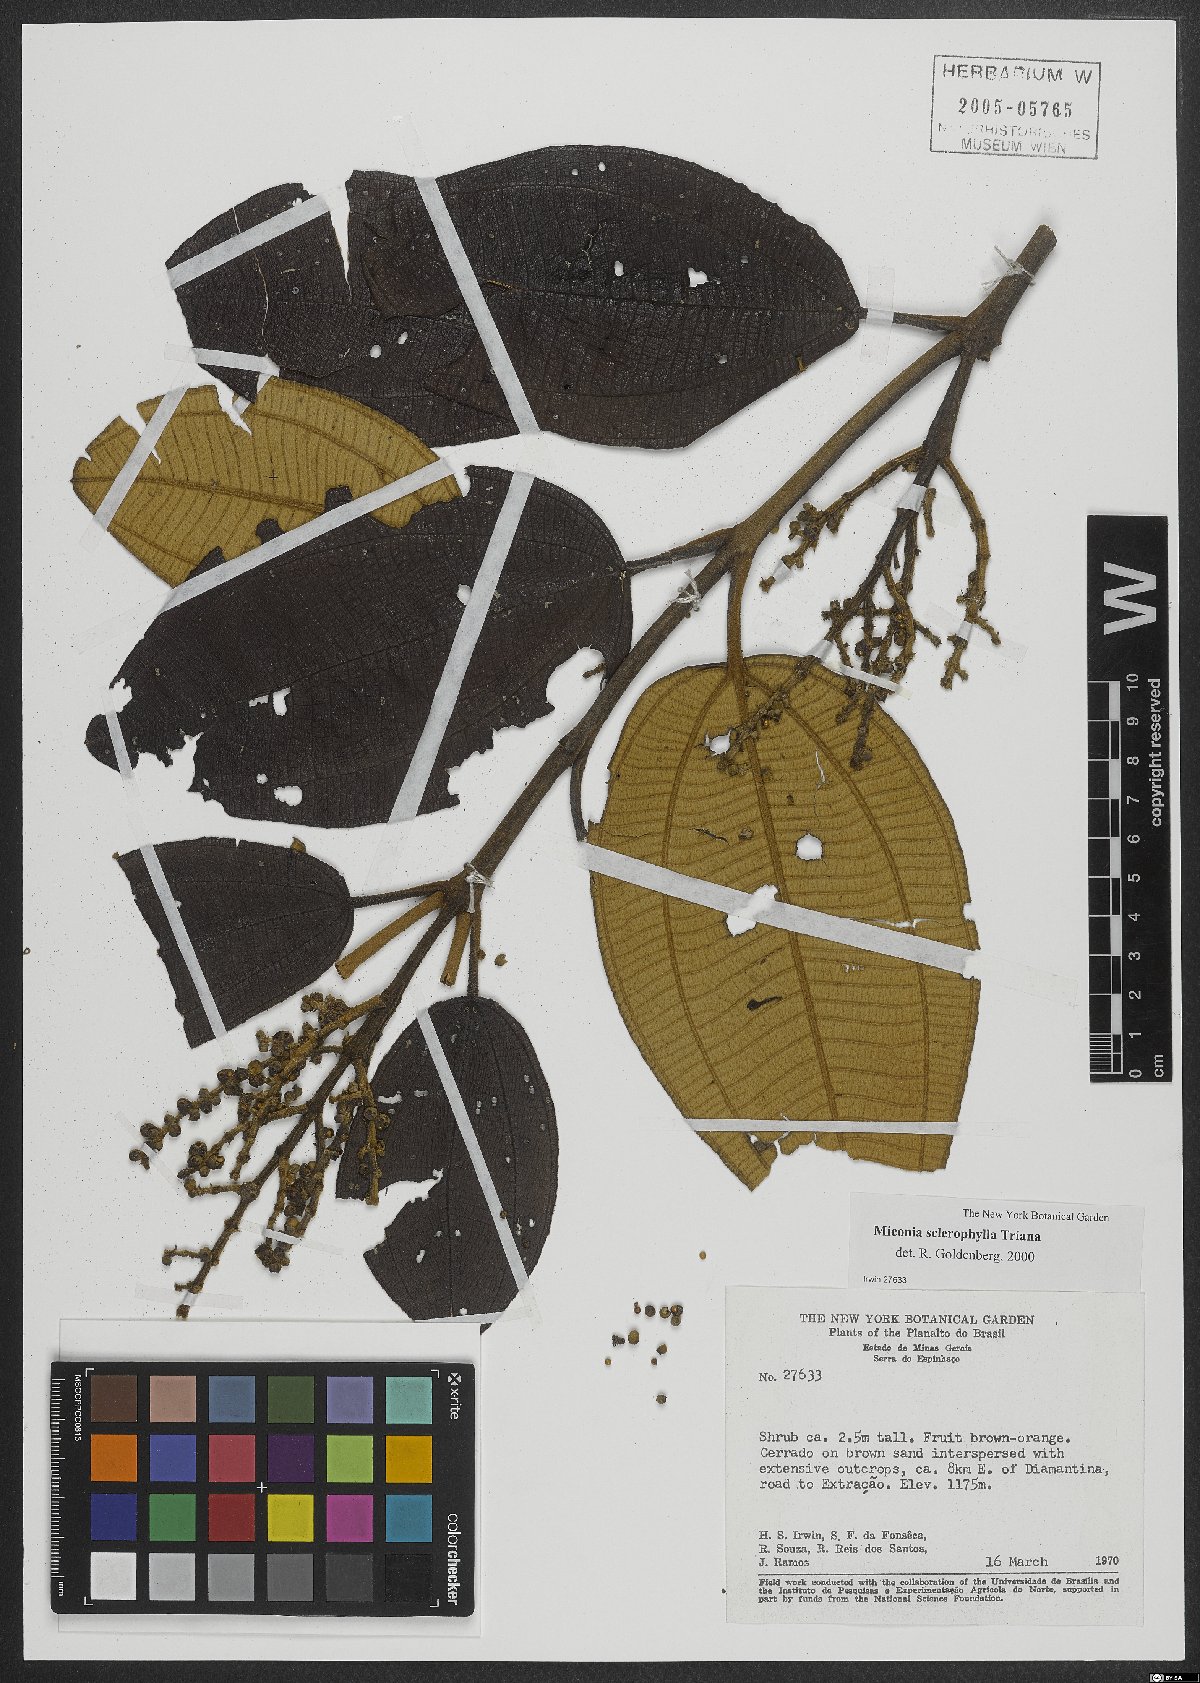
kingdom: Plantae
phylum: Tracheophyta
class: Magnoliopsida
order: Myrtales
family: Melastomataceae
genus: Miconia
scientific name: Miconia sclerophylla
